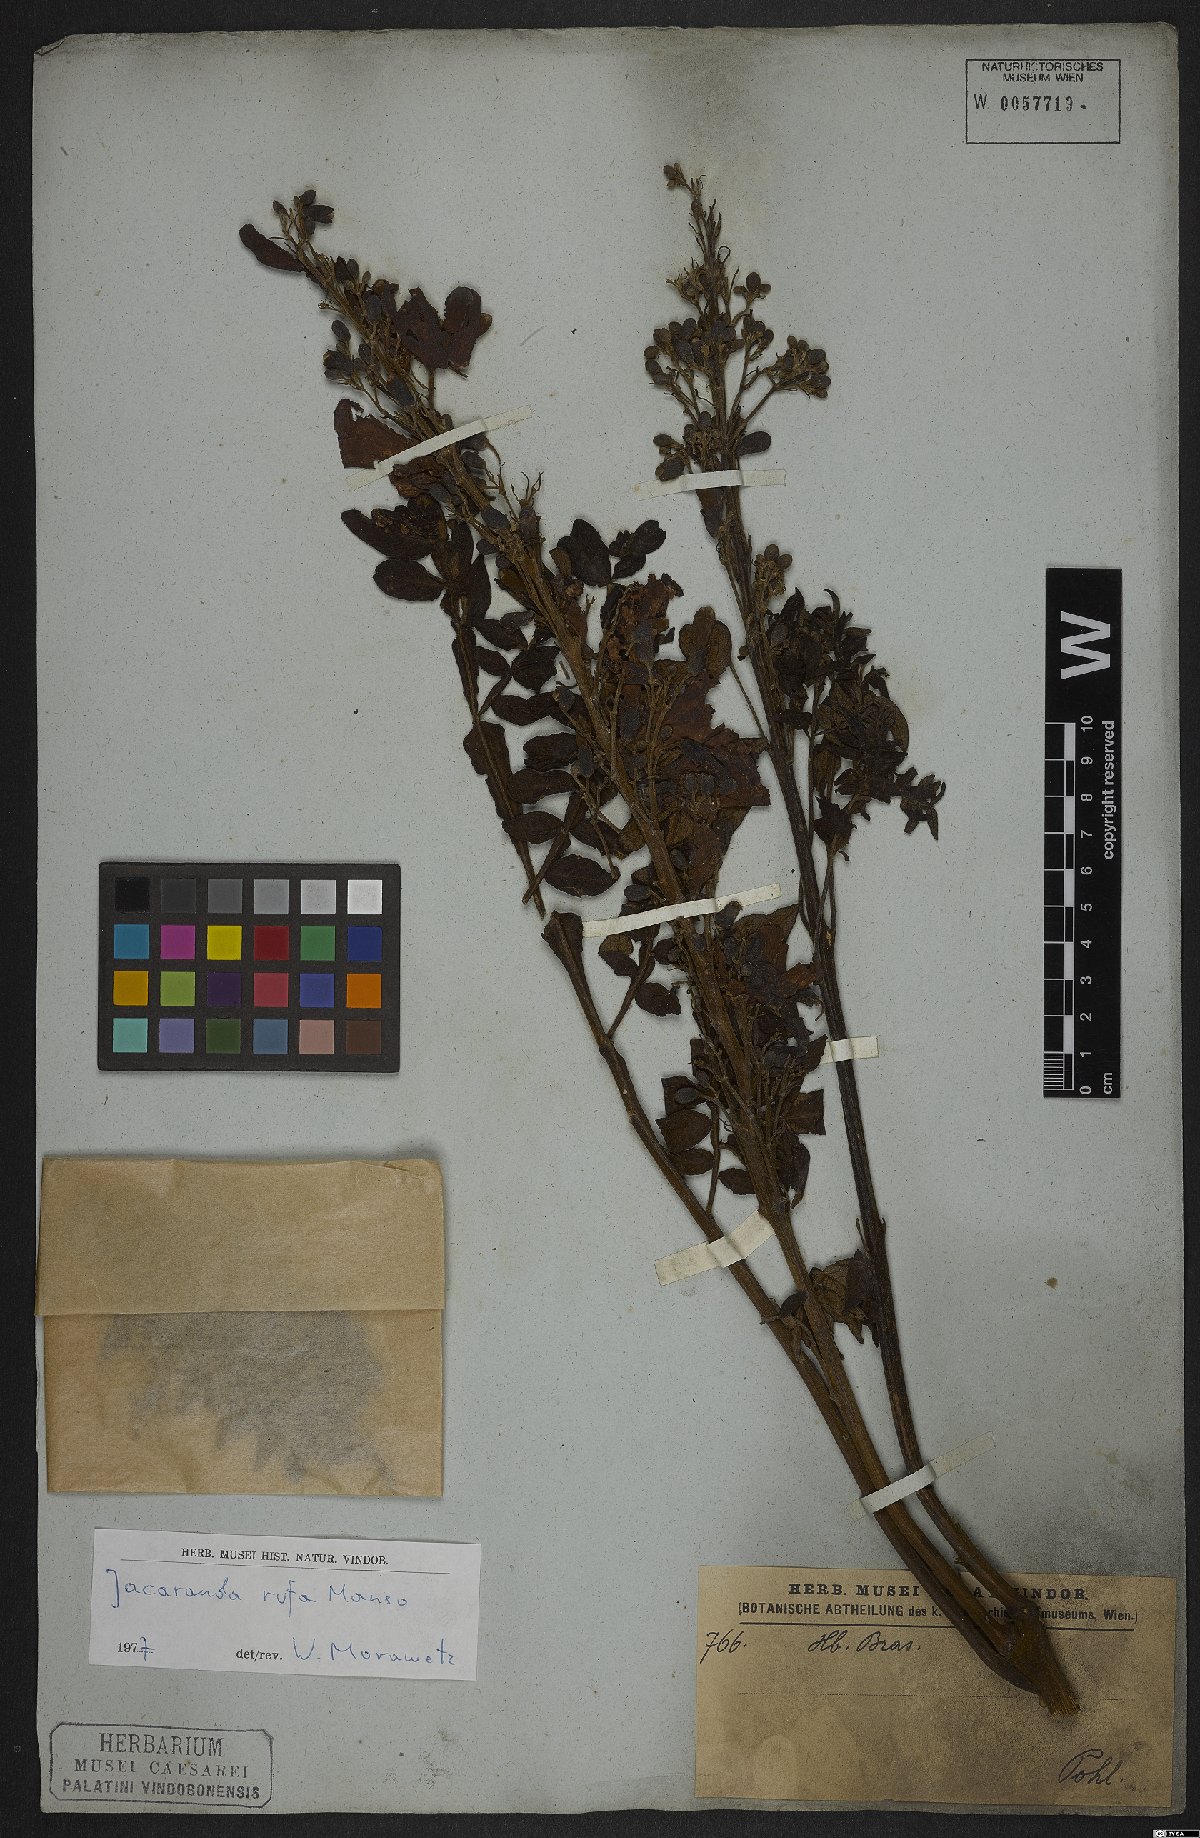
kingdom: Plantae
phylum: Tracheophyta
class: Magnoliopsida
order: Lamiales
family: Bignoniaceae
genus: Jacaranda
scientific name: Jacaranda rufa
